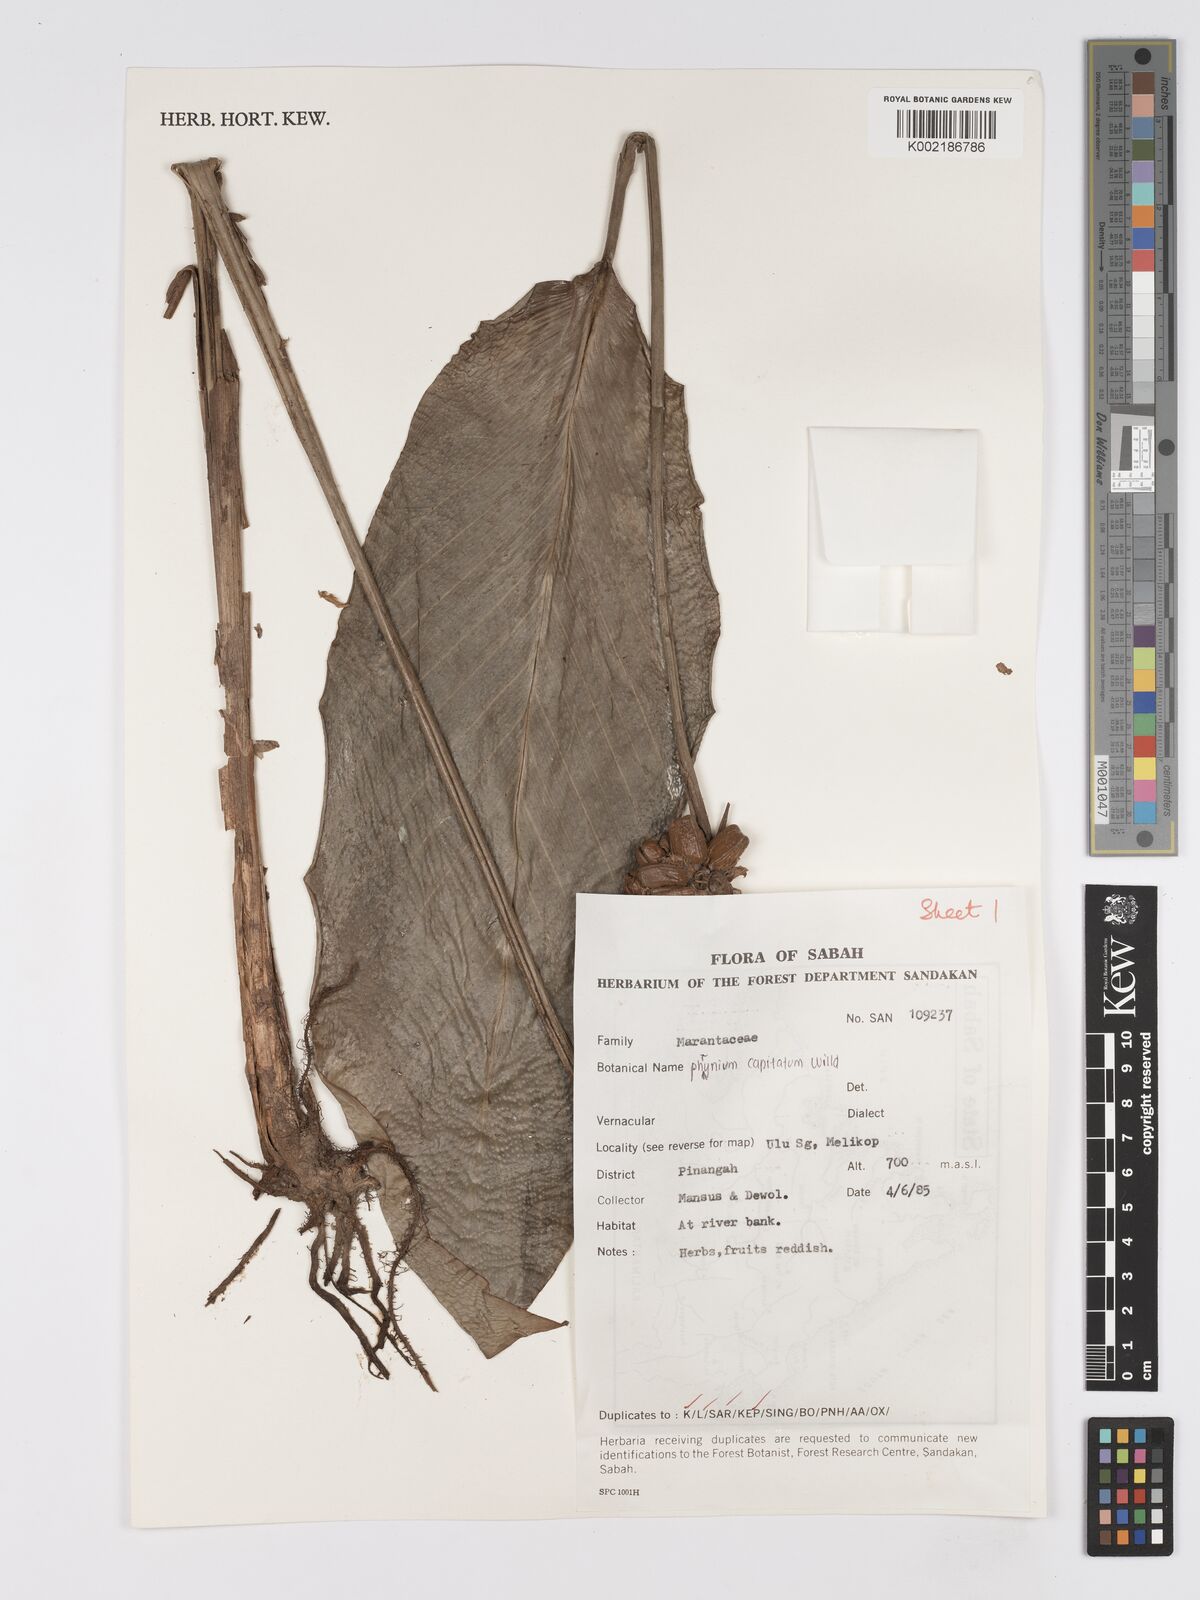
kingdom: Plantae
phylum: Tracheophyta
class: Liliopsida
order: Zingiberales
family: Marantaceae
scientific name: Marantaceae
